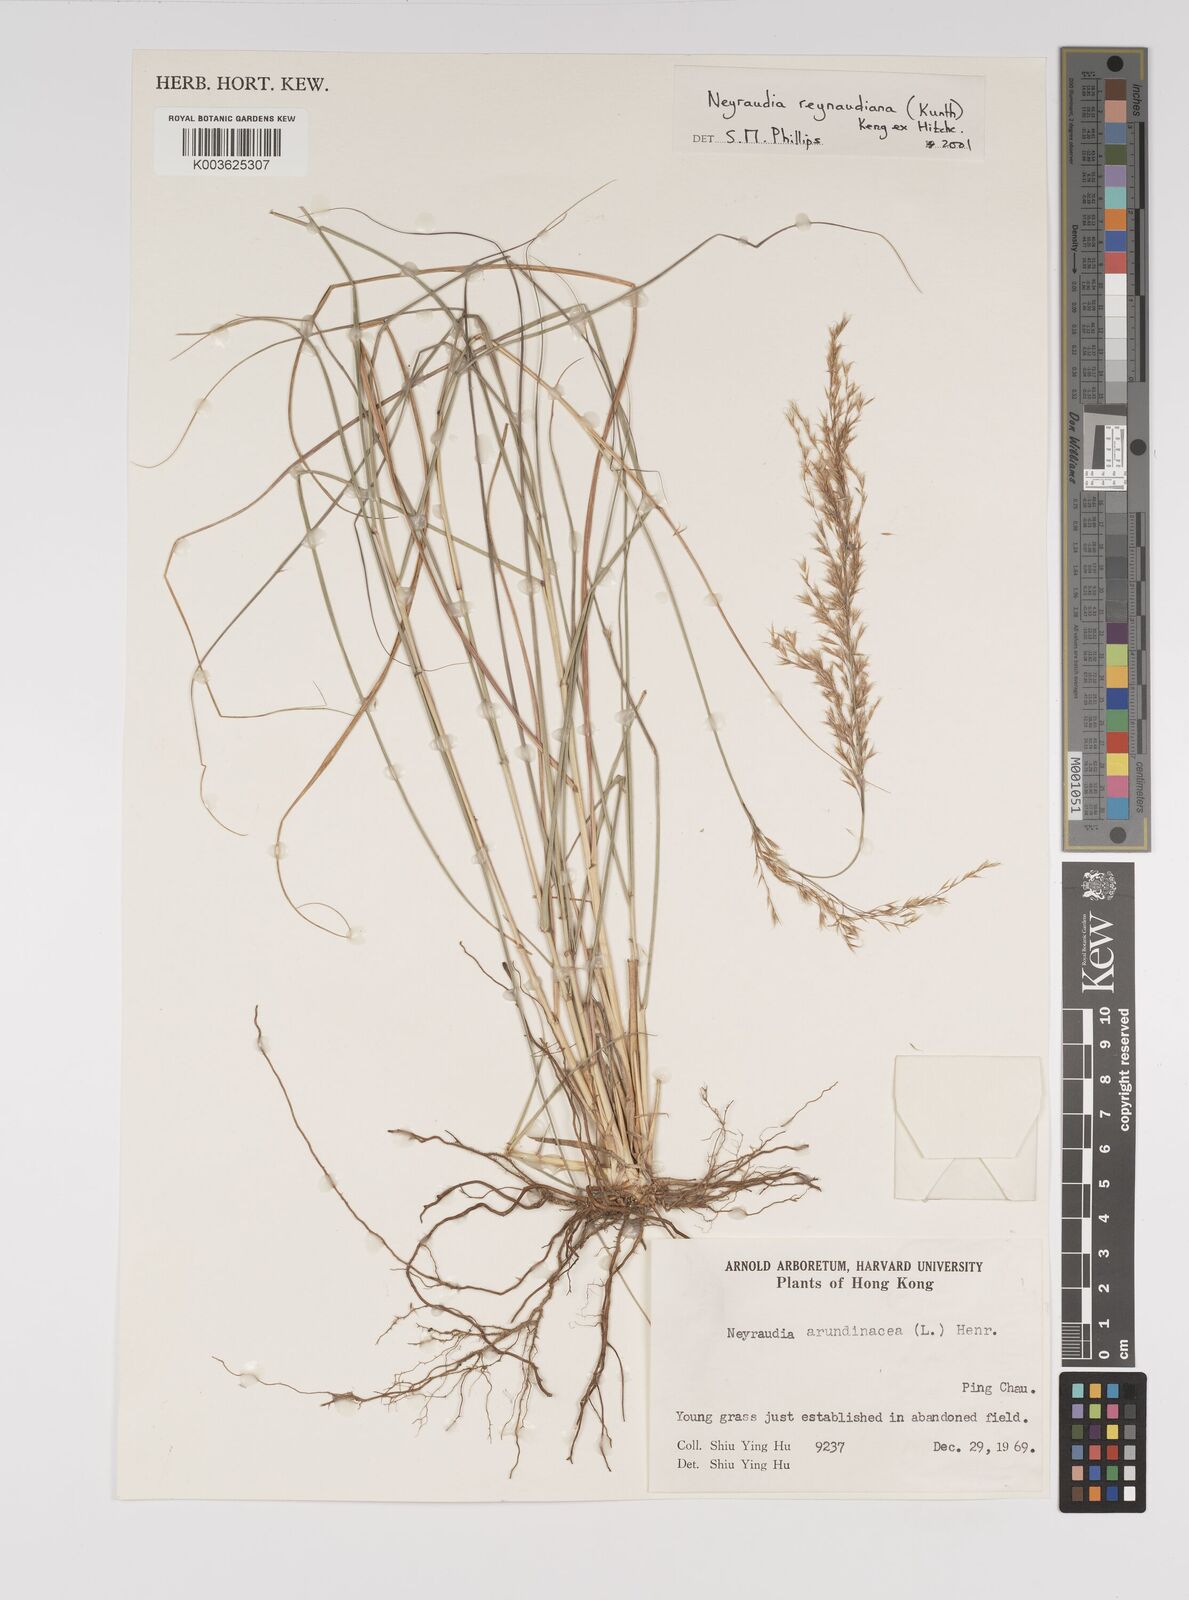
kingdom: Plantae
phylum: Tracheophyta
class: Liliopsida
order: Poales
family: Poaceae
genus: Neyraudia
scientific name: Neyraudia reynaudiana
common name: Silkreed
